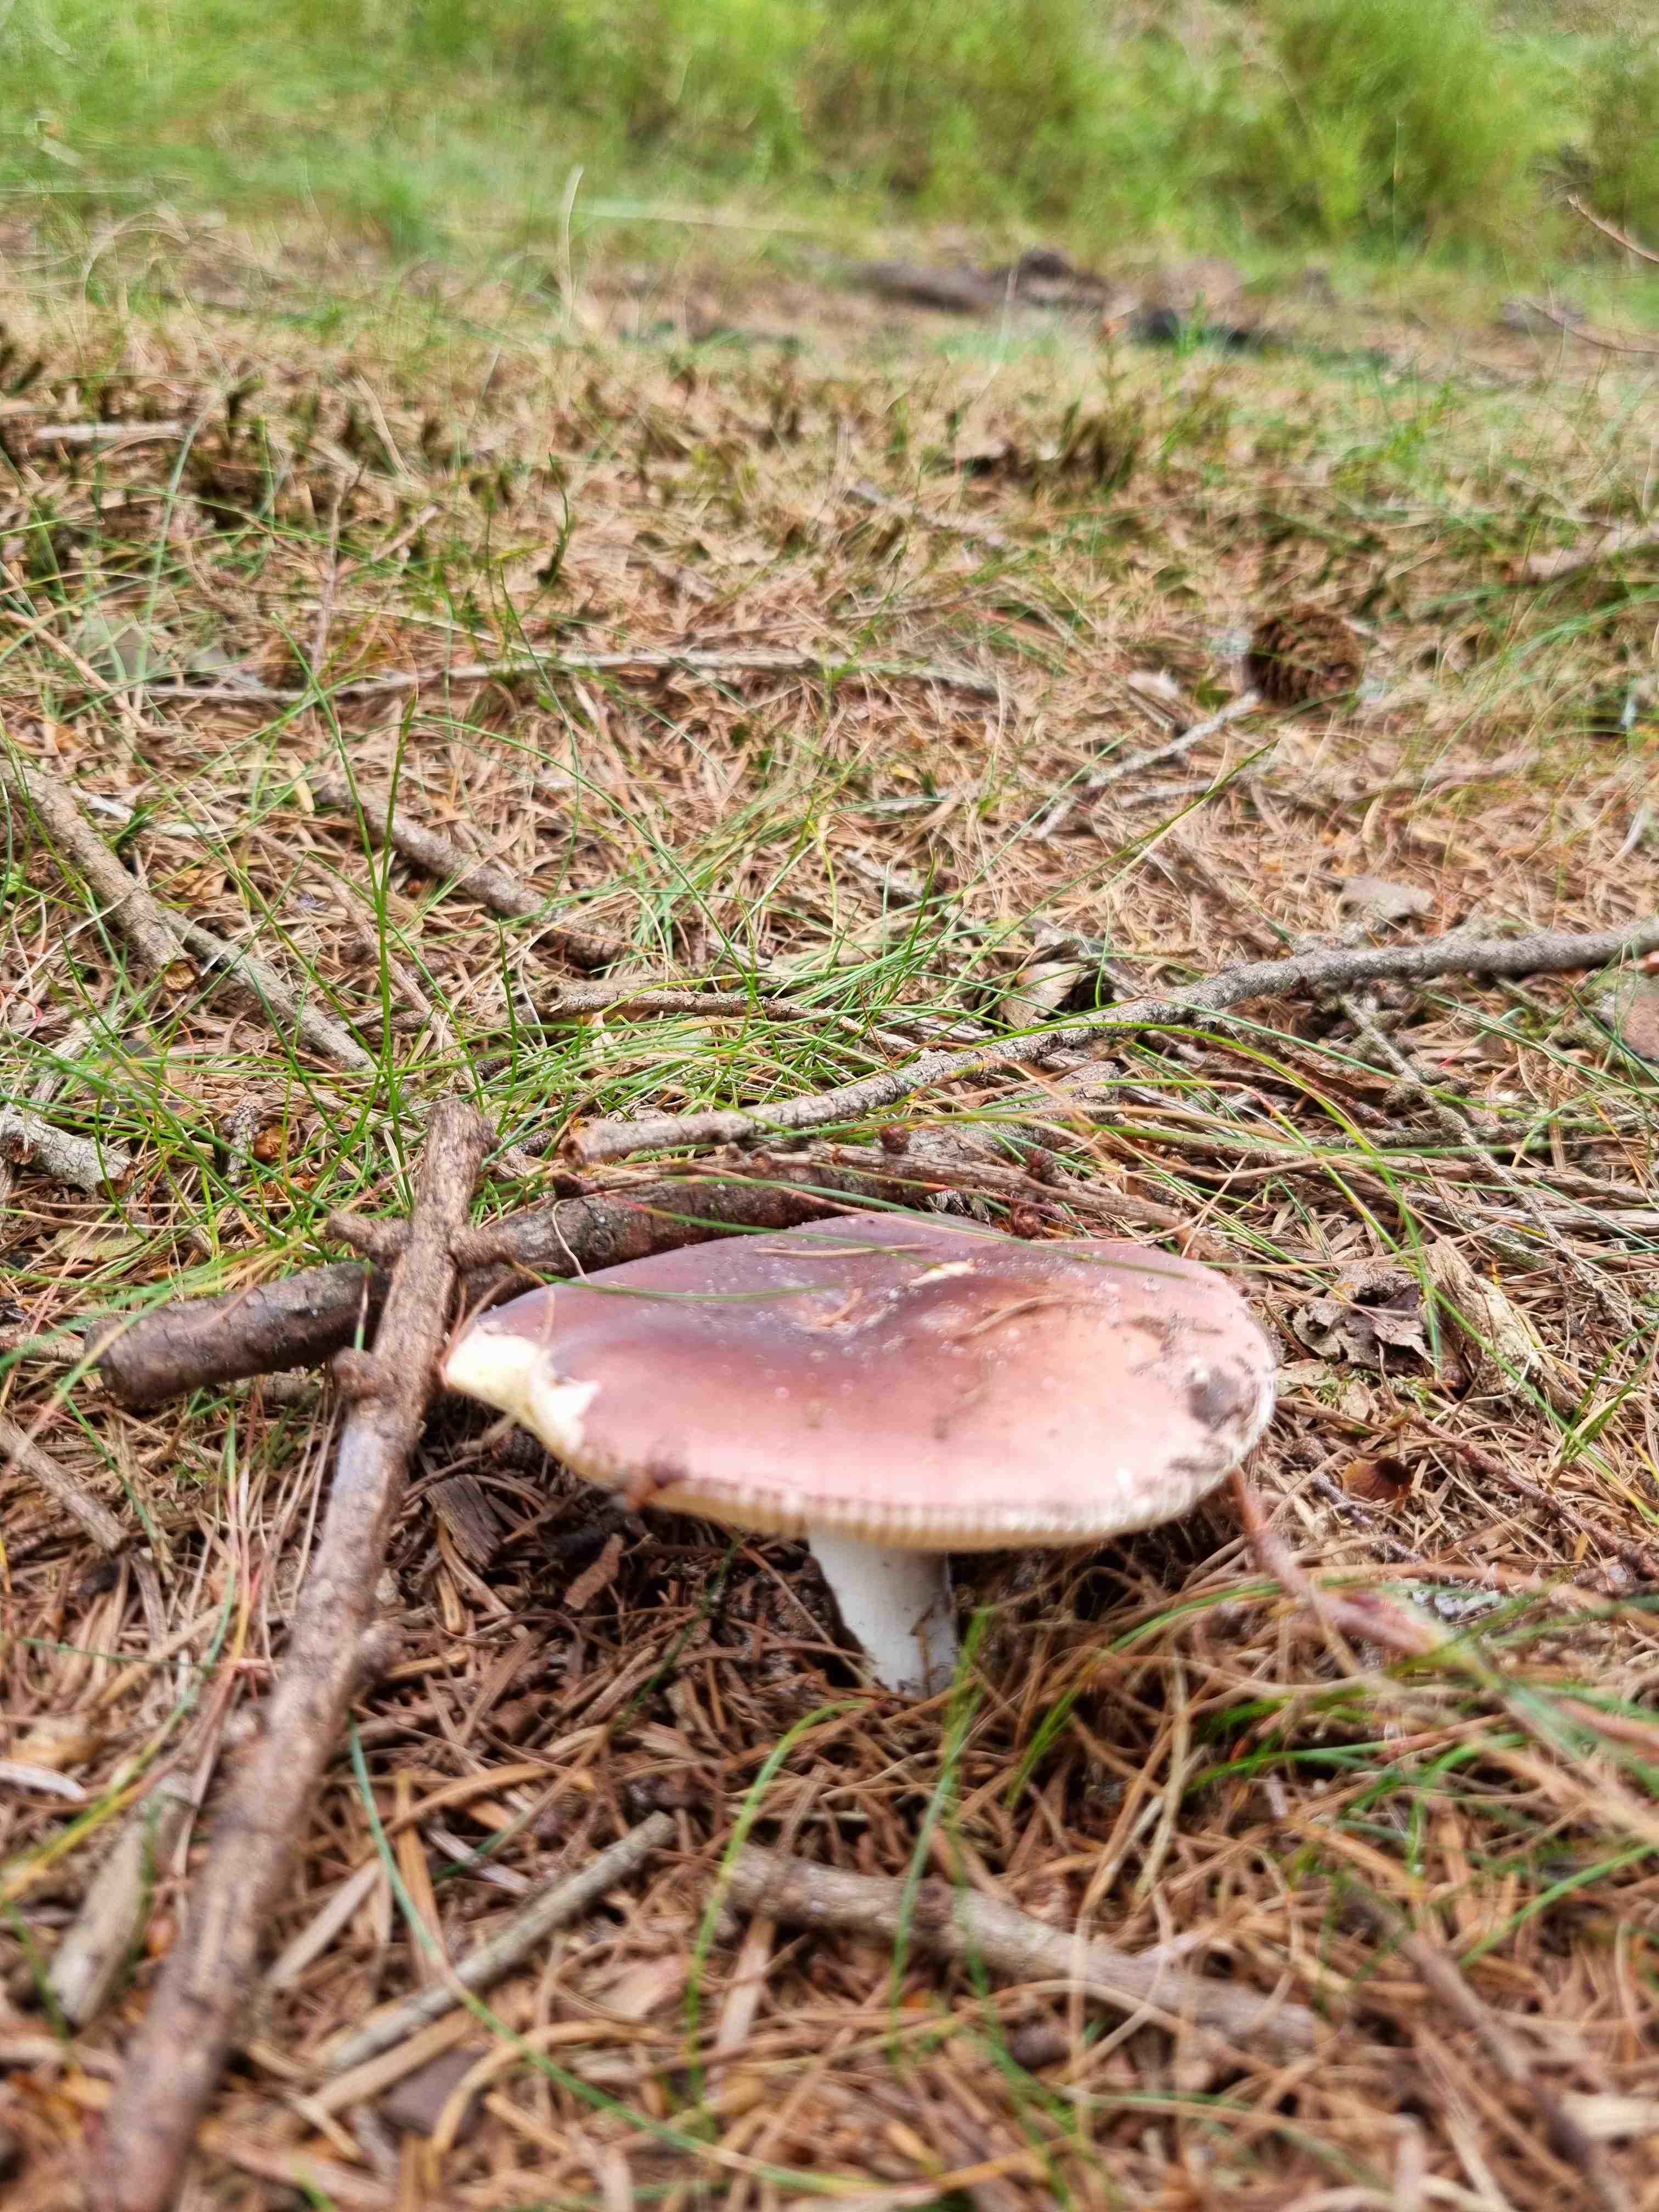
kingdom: Fungi
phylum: Basidiomycota
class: Agaricomycetes
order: Russulales
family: Russulaceae
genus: Russula
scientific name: Russula vesca
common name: spiselig skørhat
